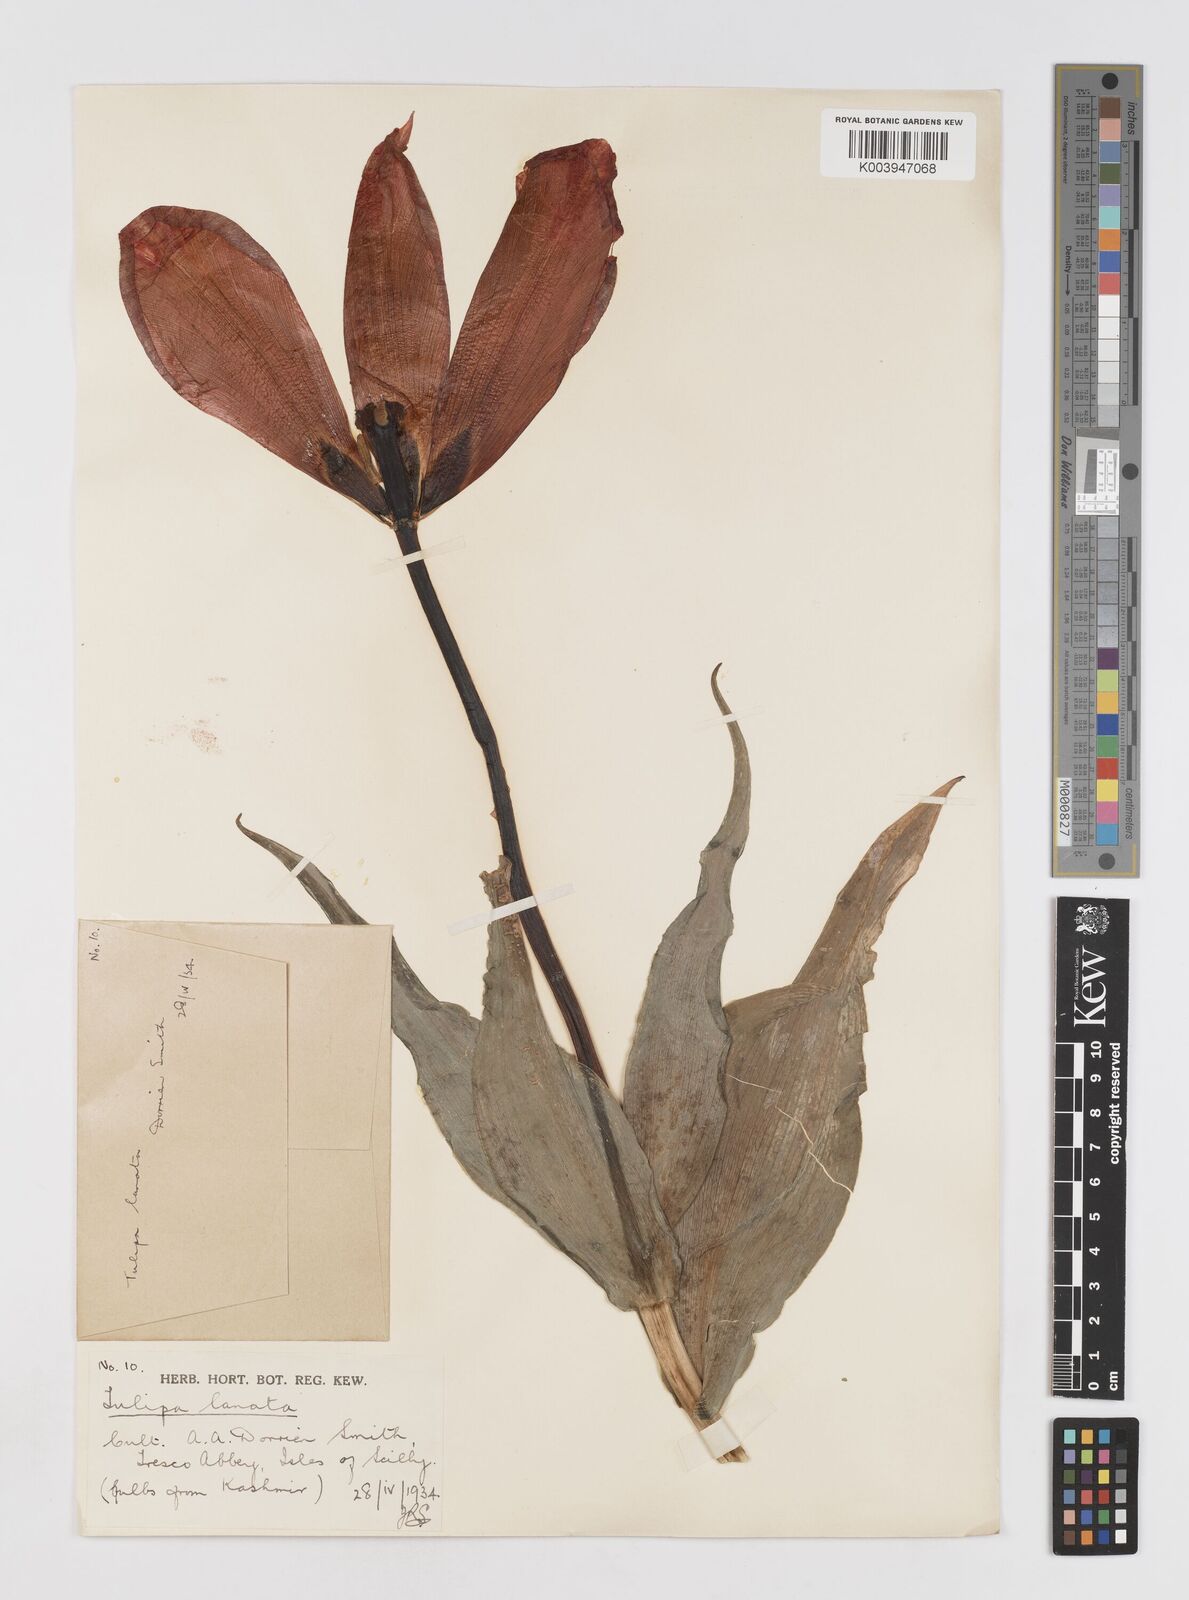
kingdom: Plantae
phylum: Tracheophyta
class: Liliopsida
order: Liliales
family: Liliaceae
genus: Tulipa
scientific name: Tulipa lanata
